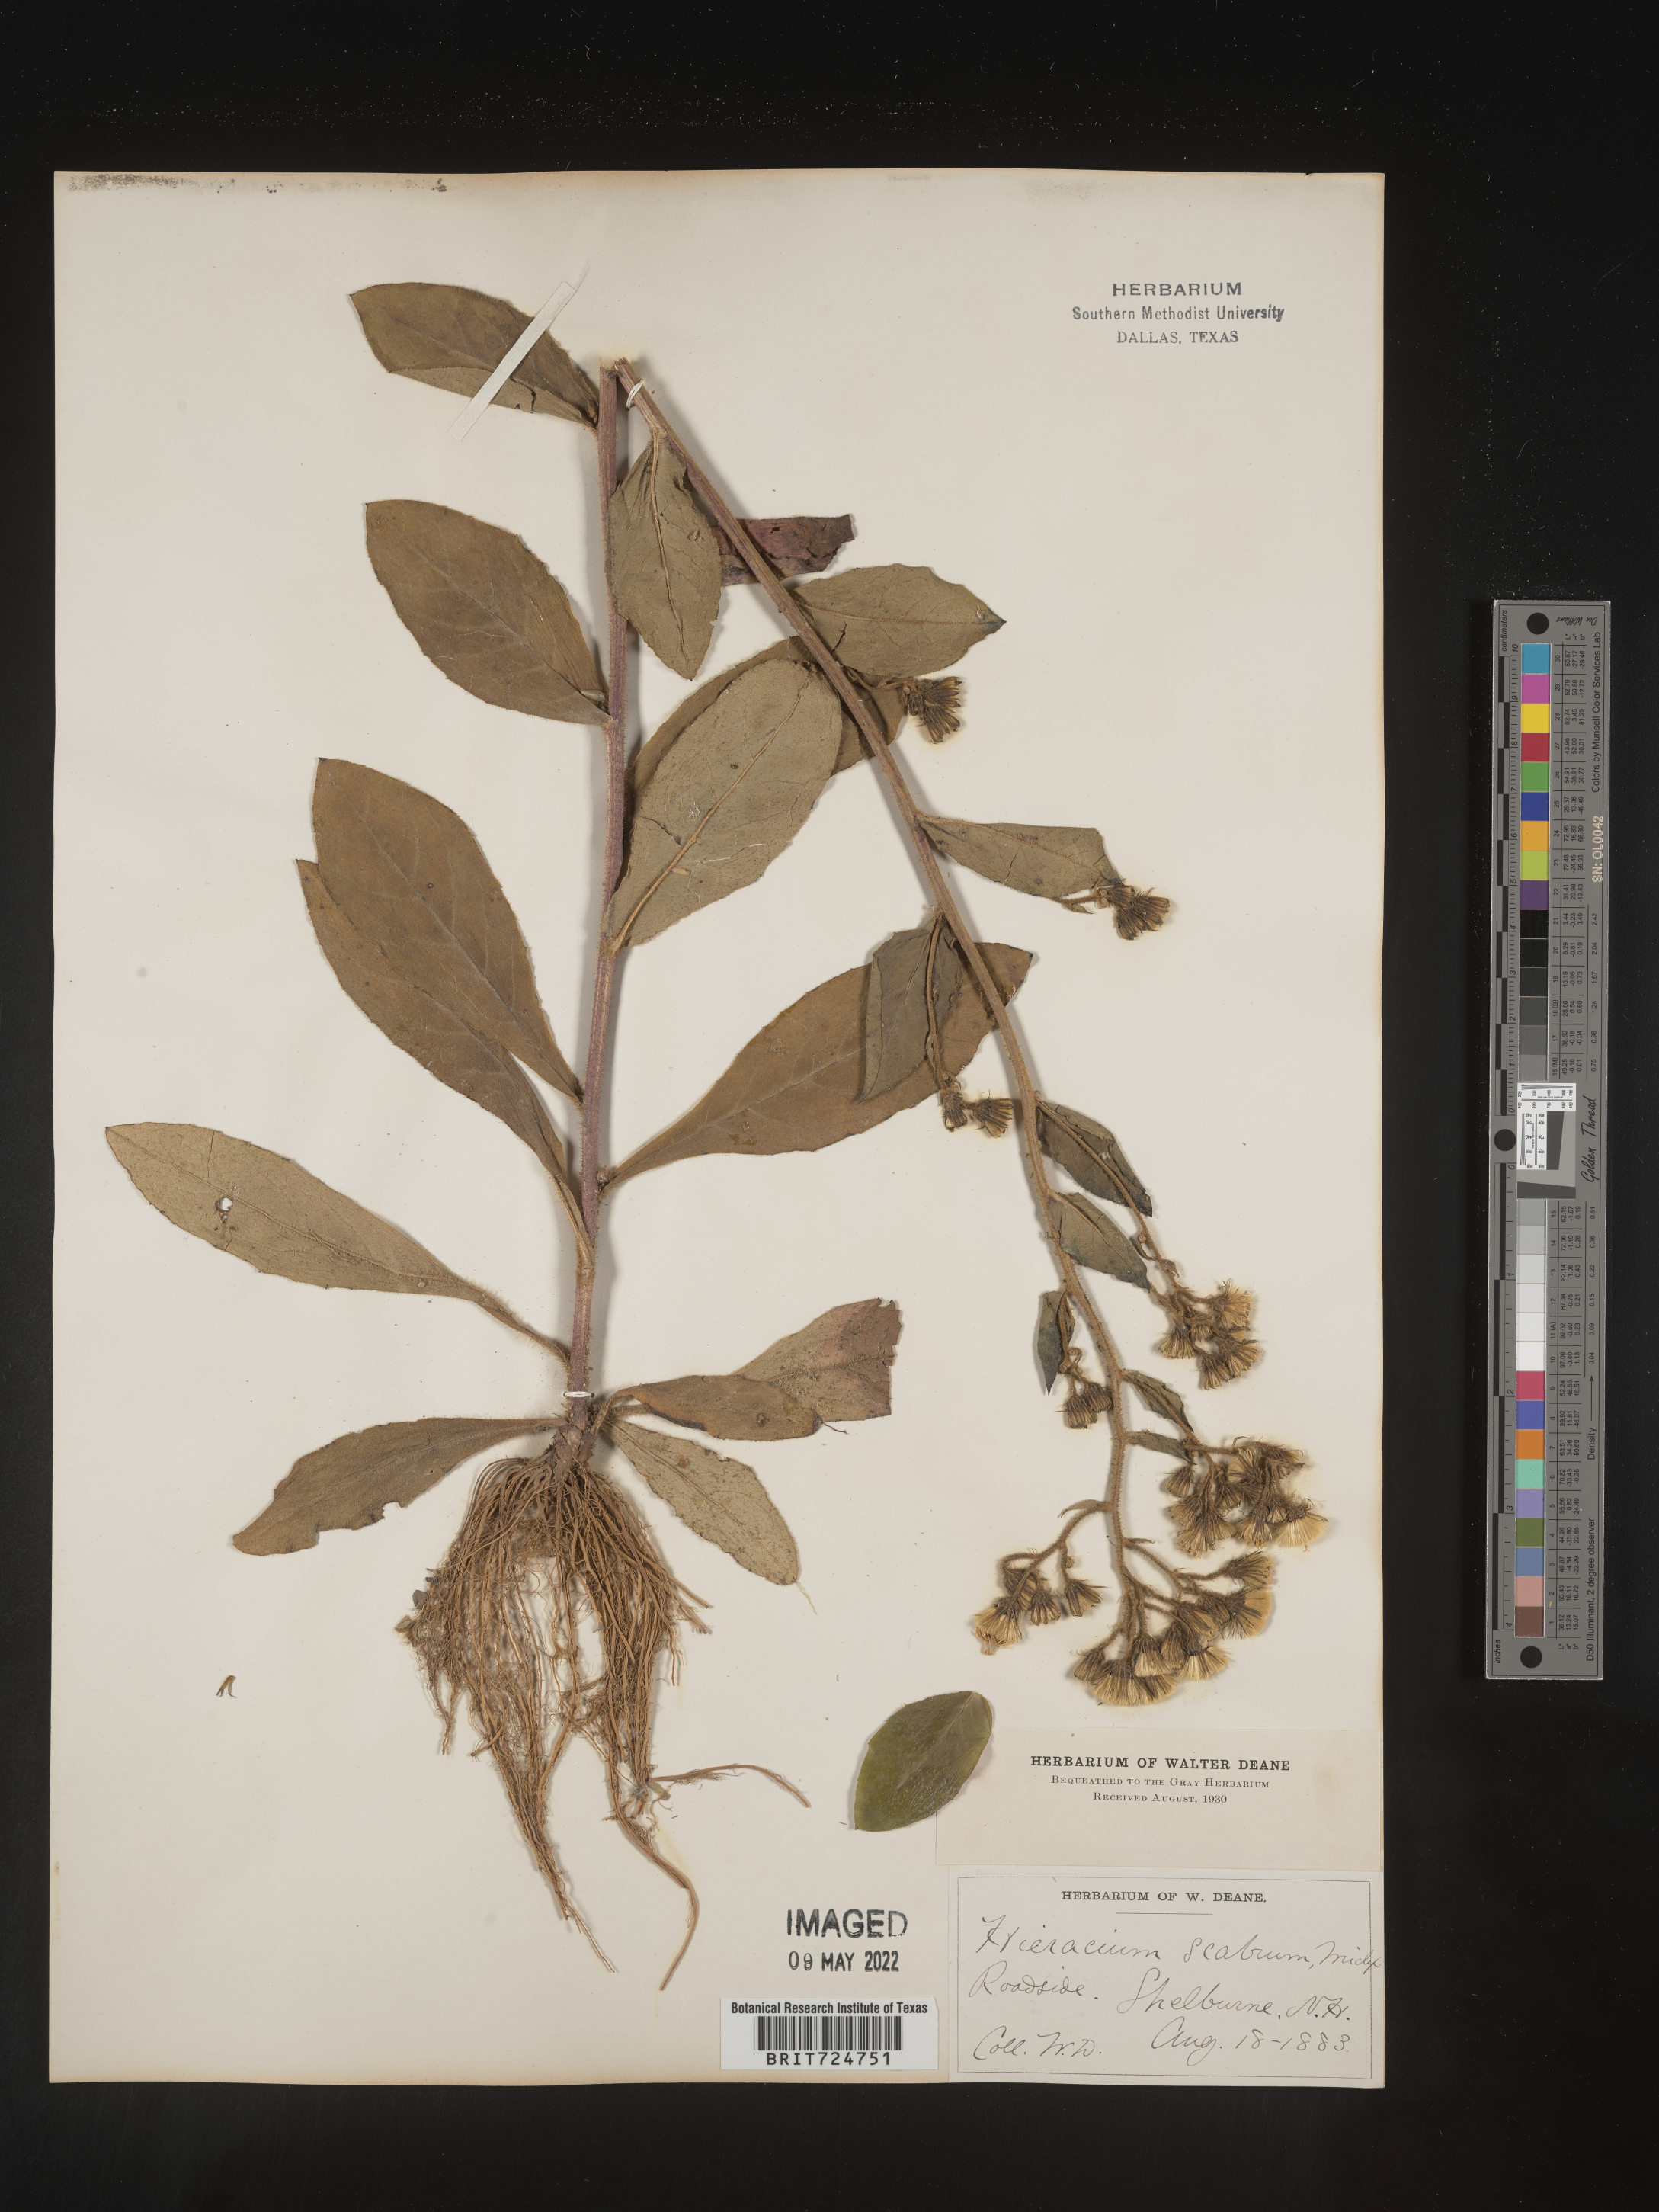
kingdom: Plantae
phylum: Tracheophyta
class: Magnoliopsida
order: Asterales
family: Asteraceae
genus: Hieracium
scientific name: Hieracium scabrum
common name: Rough hawkweed
